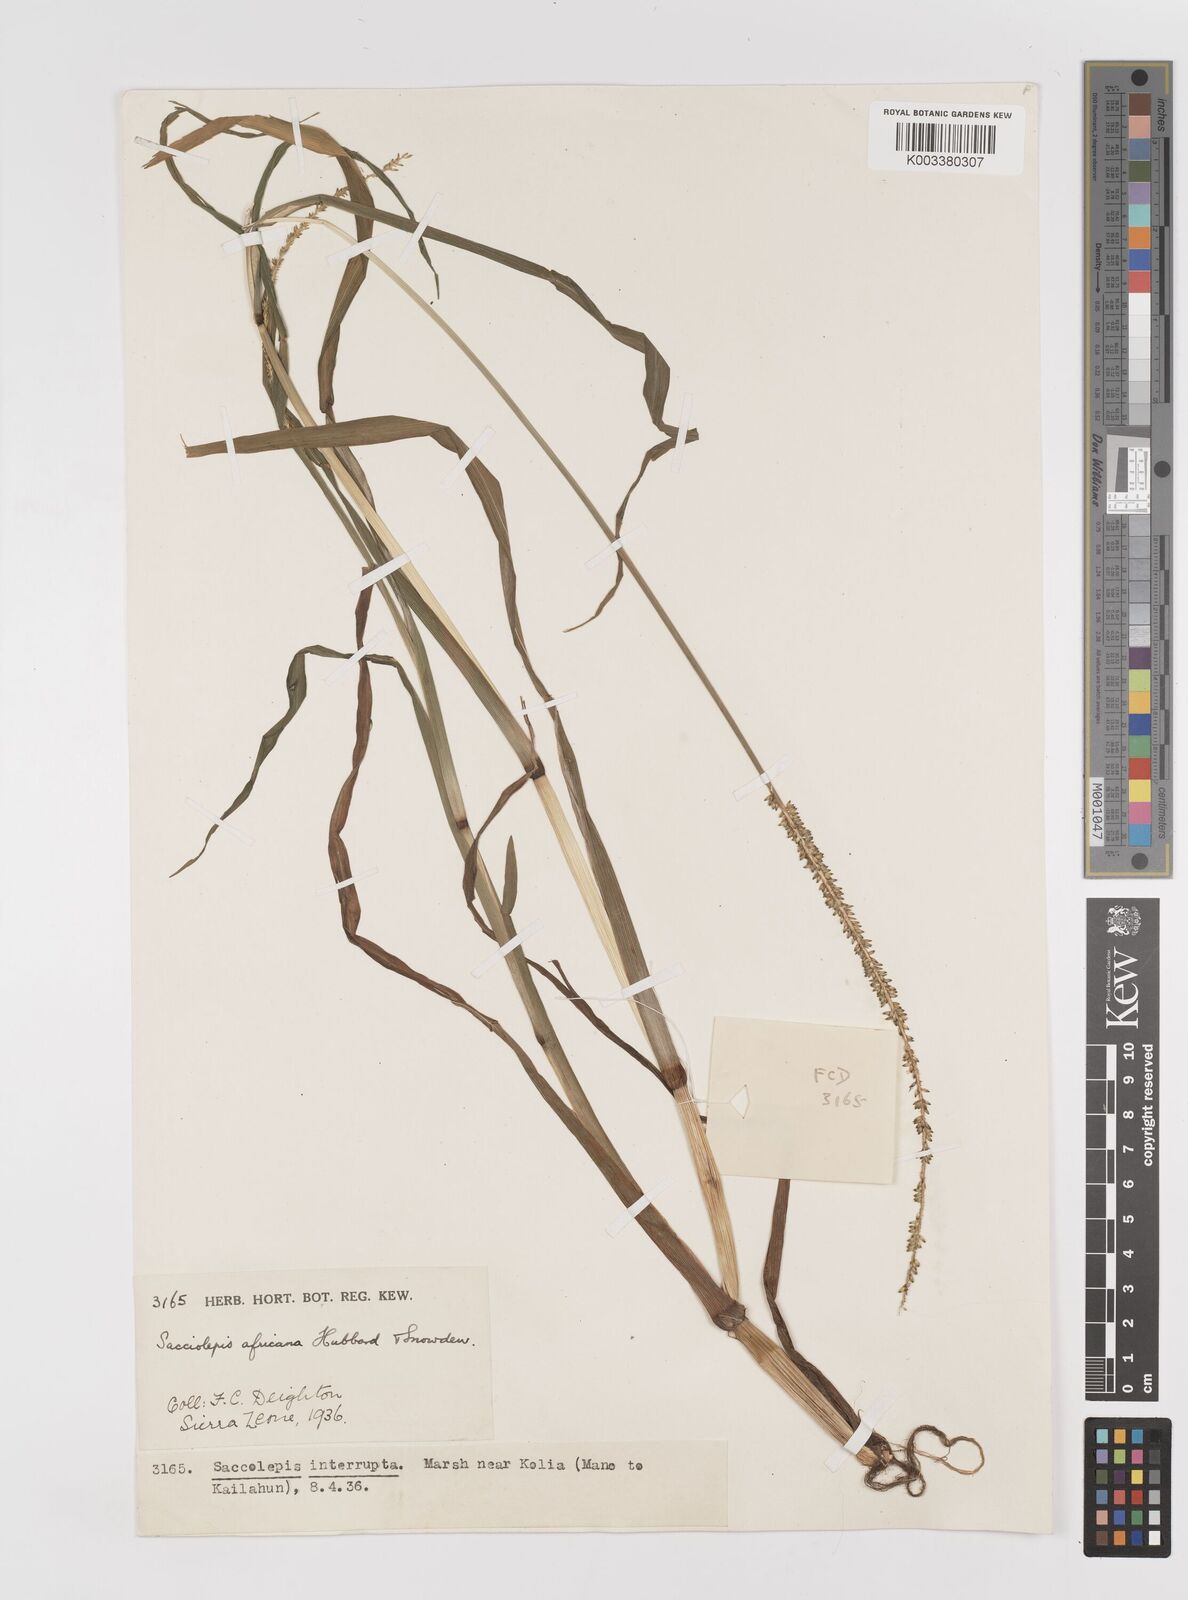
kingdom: Plantae
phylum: Tracheophyta
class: Liliopsida
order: Poales
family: Poaceae
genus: Sacciolepis
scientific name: Sacciolepis africana
